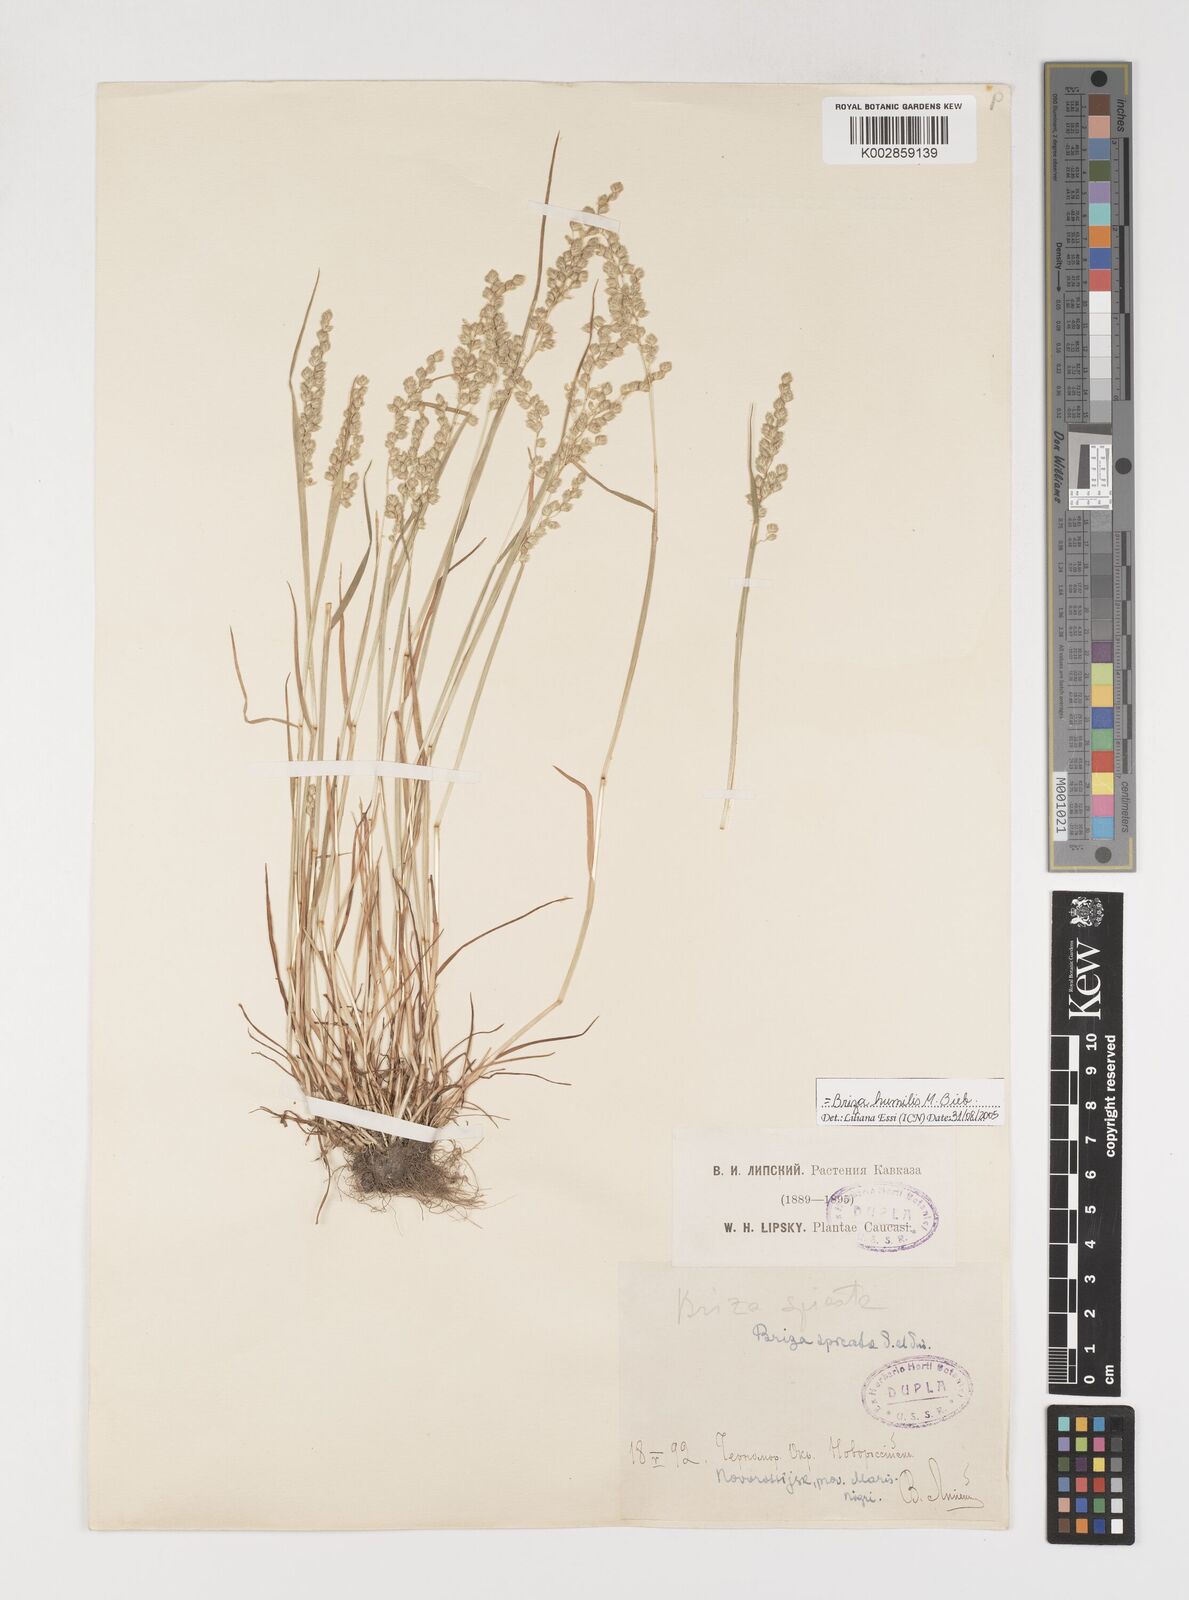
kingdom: Plantae
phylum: Tracheophyta
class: Liliopsida
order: Poales
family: Poaceae
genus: Briza
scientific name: Briza humilis
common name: Spiked quaking grass
